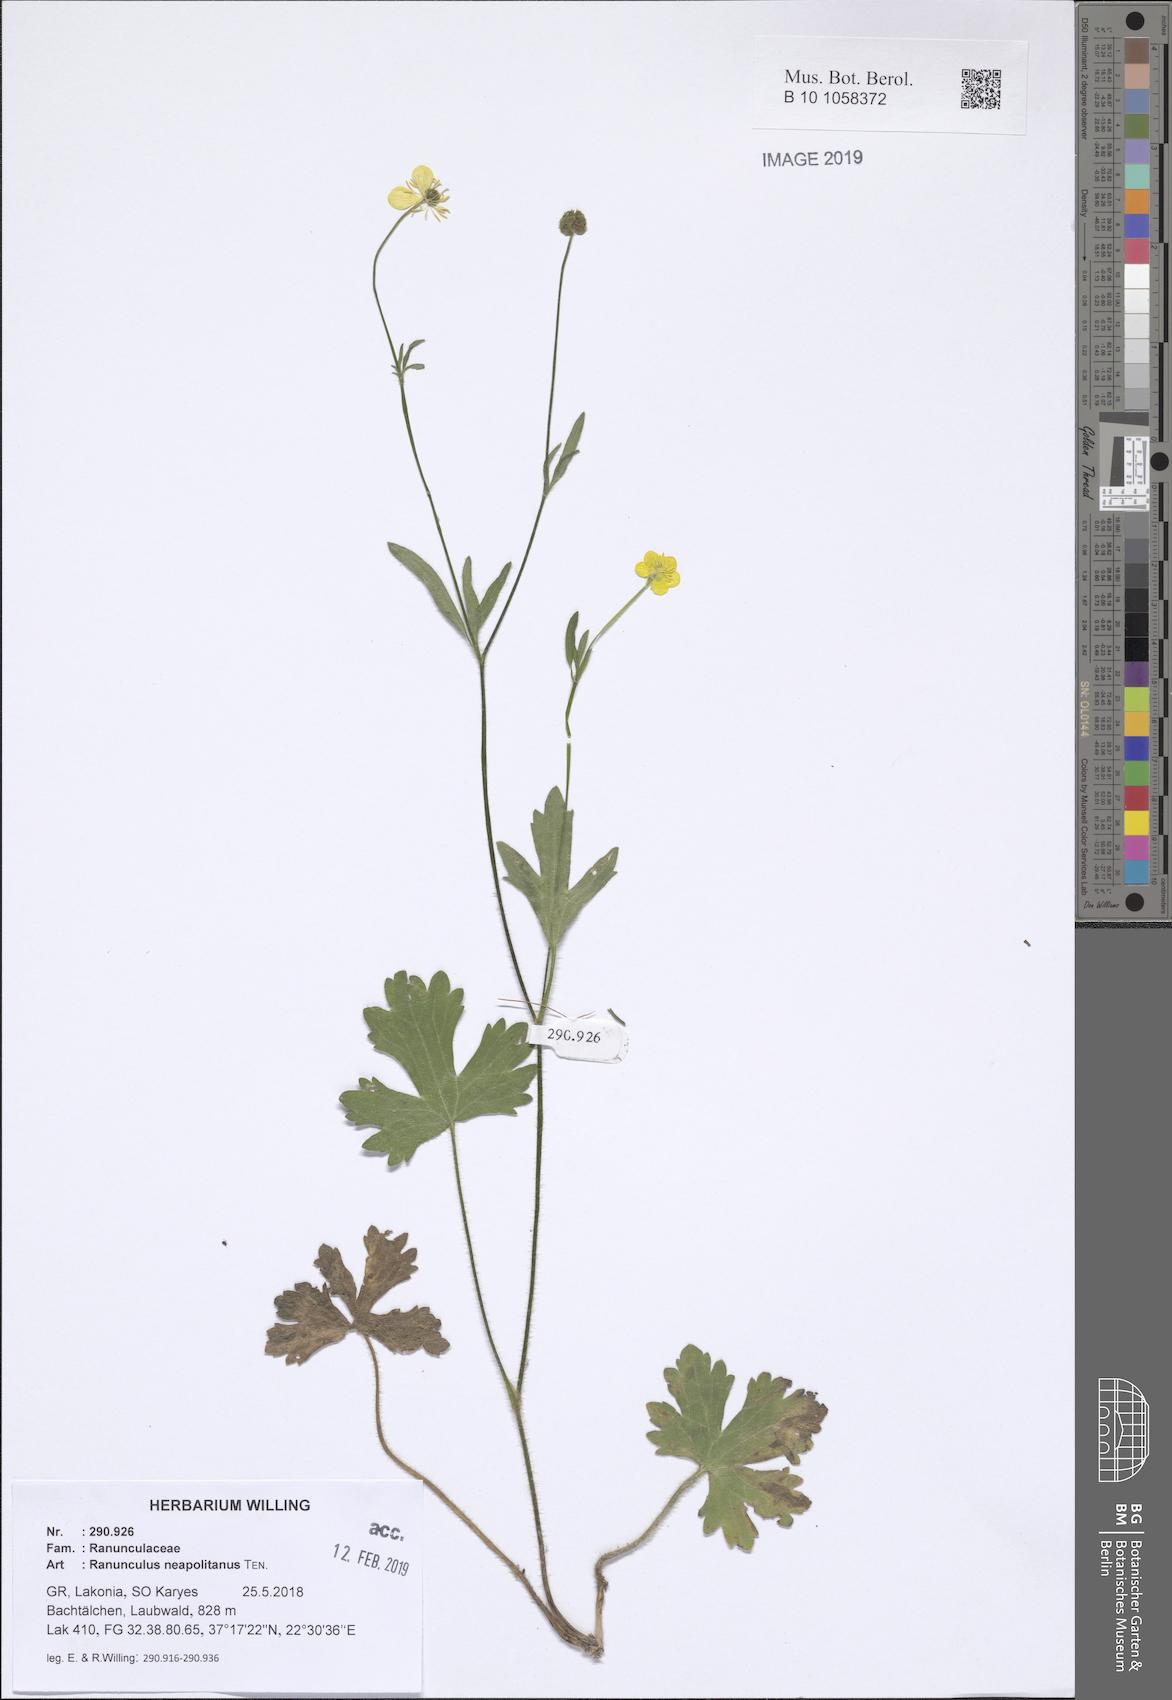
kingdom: Plantae
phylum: Tracheophyta
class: Magnoliopsida
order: Ranunculales
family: Ranunculaceae
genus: Ranunculus
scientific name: Ranunculus neapolitanus
